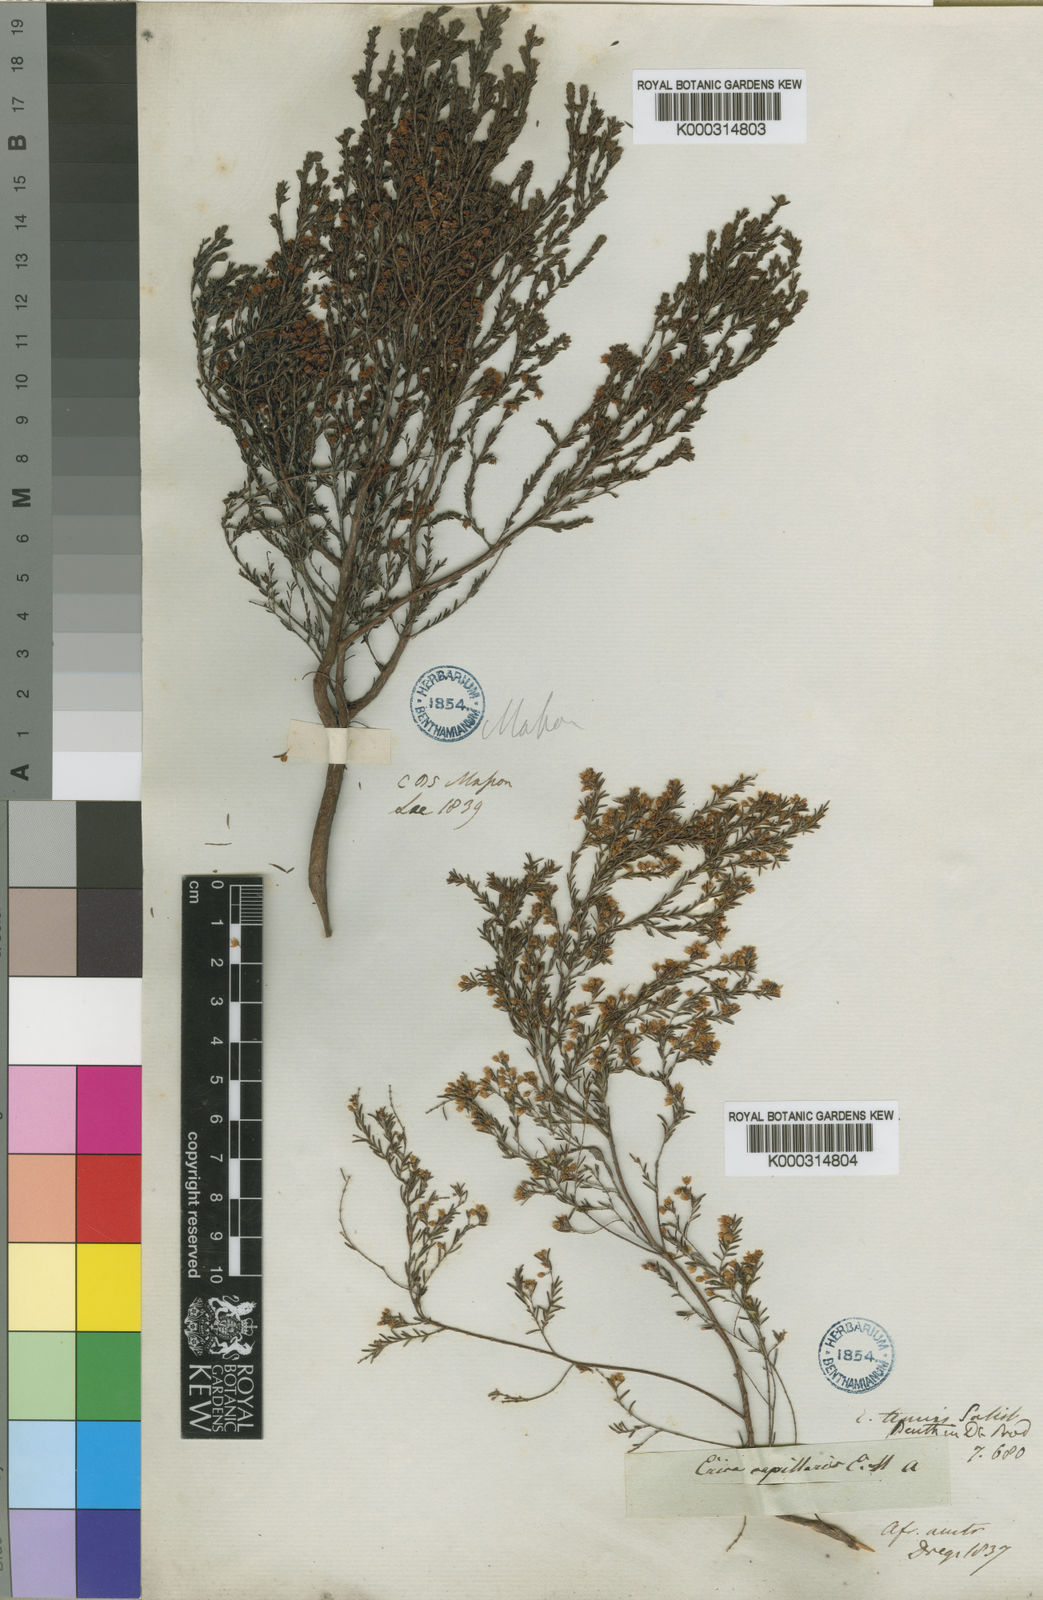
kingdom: Plantae
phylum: Tracheophyta
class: Magnoliopsida
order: Ericales
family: Ericaceae
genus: Erica
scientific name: Erica
